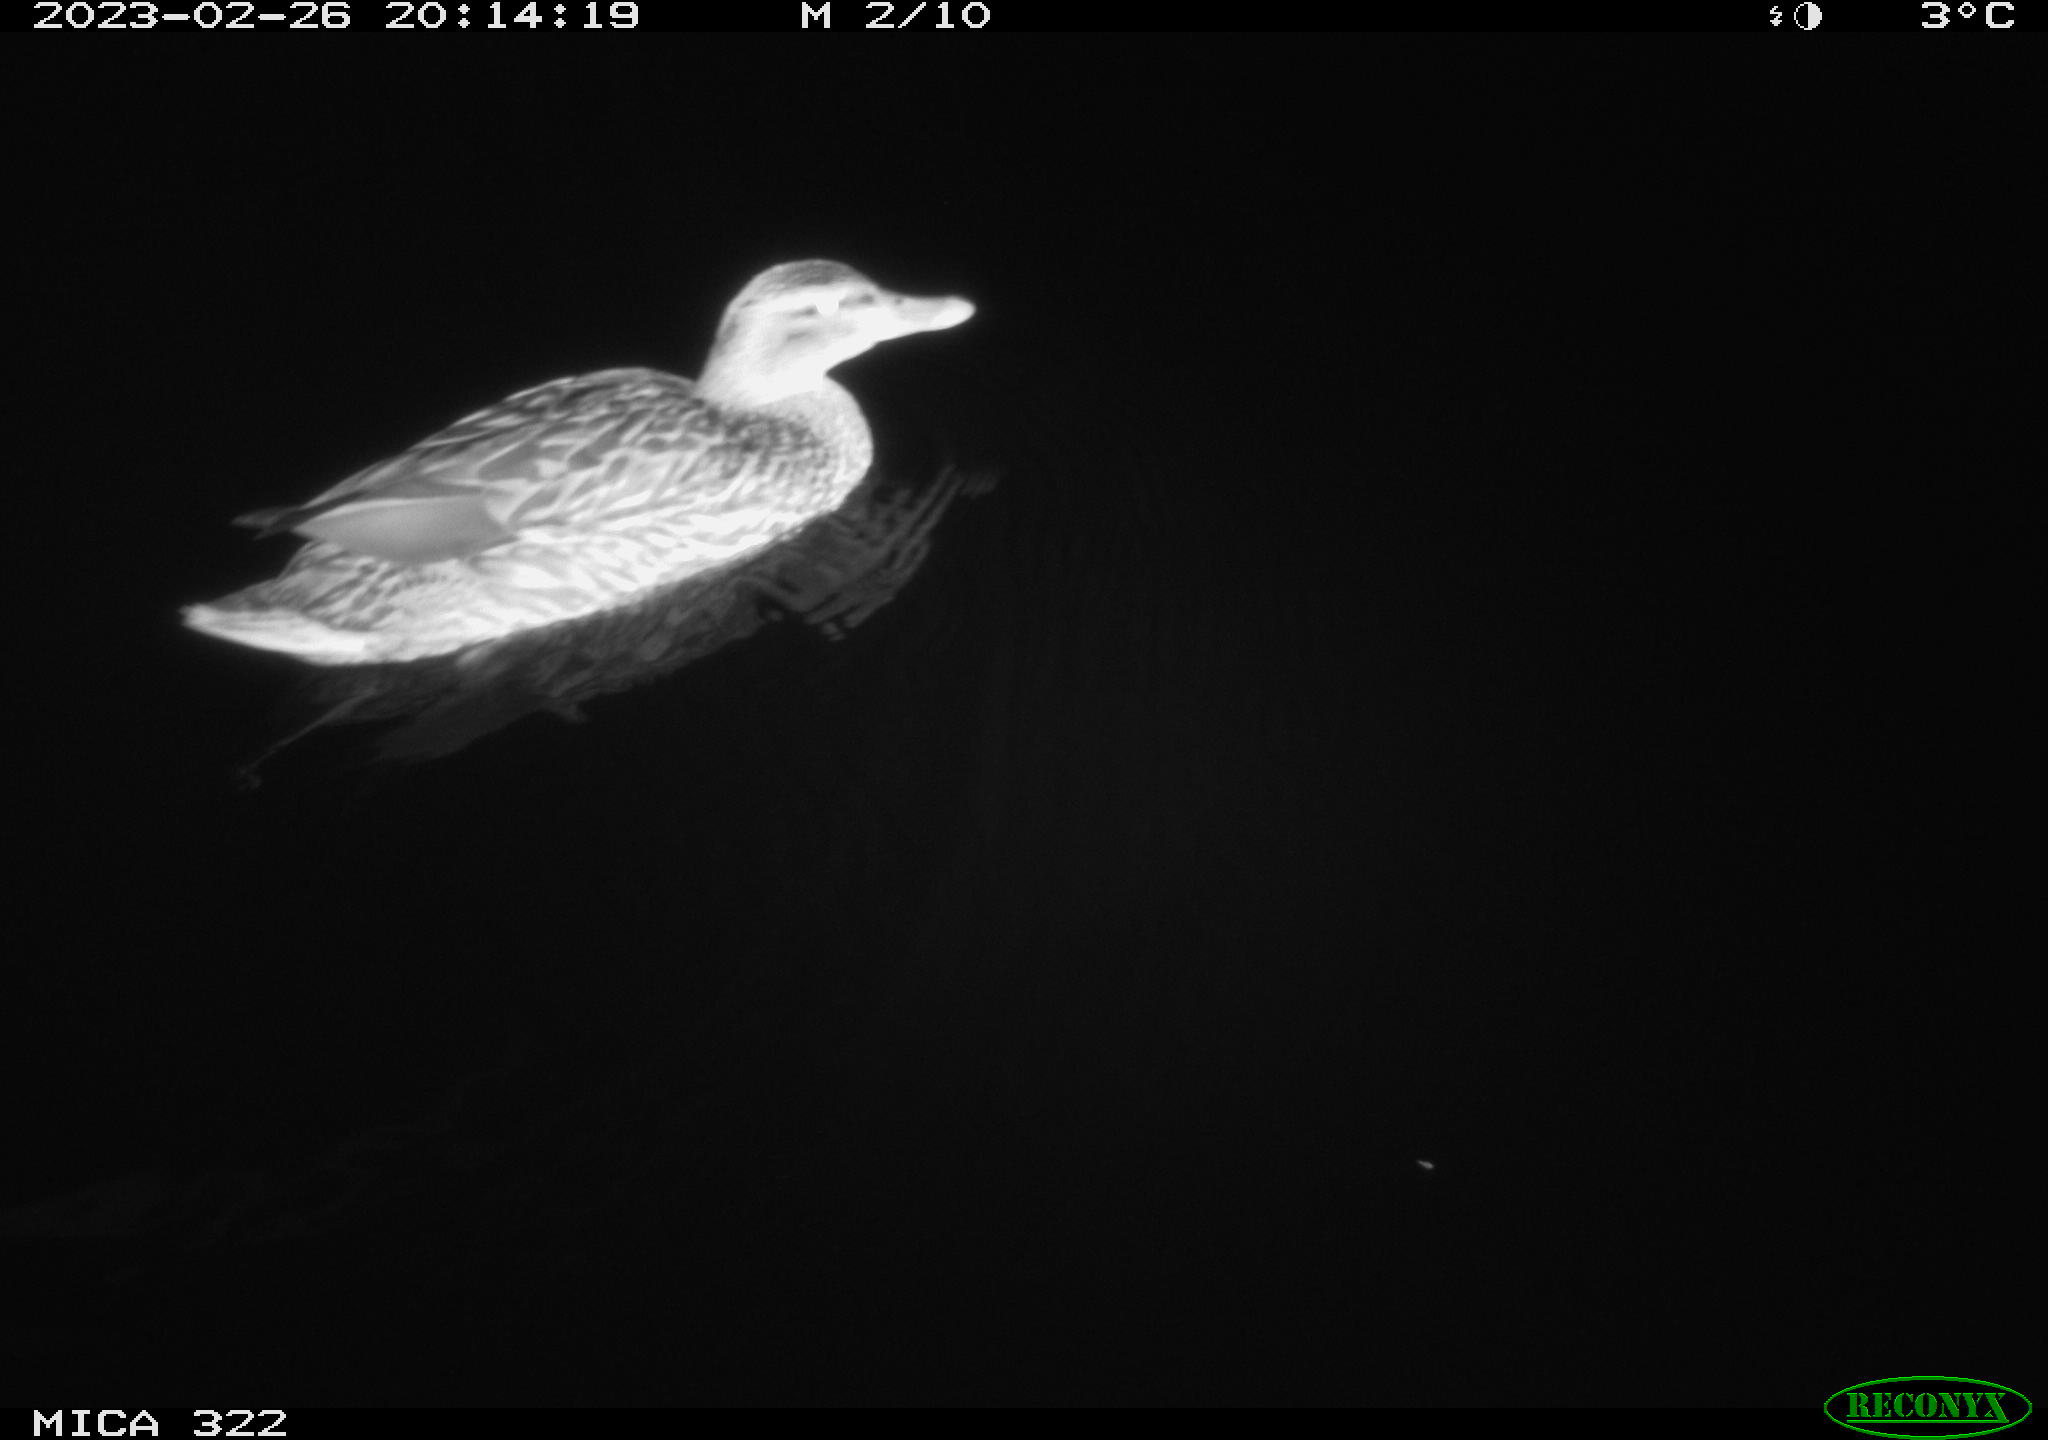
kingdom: Animalia
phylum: Chordata
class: Aves
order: Anseriformes
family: Anatidae
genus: Anas
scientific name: Anas
